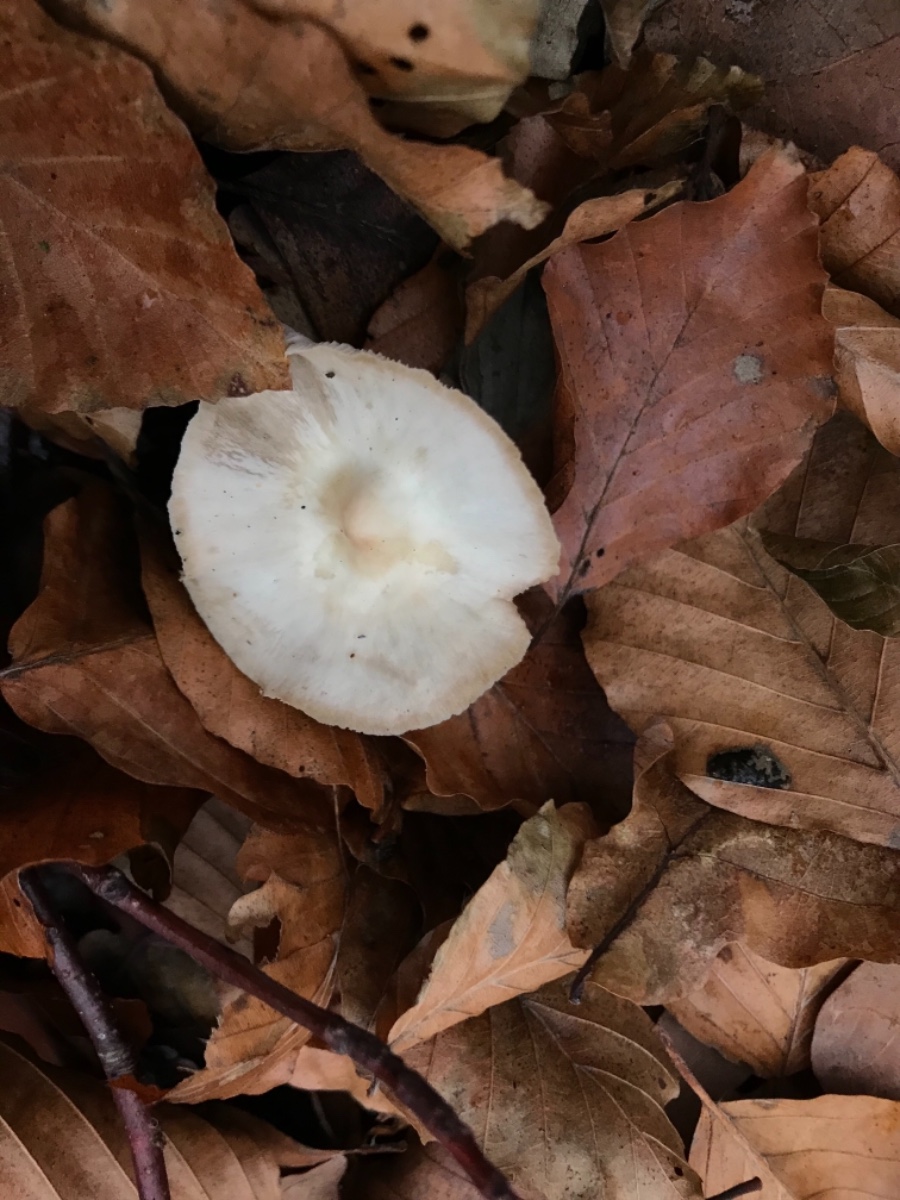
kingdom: Fungi
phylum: Basidiomycota
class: Agaricomycetes
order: Agaricales
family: Omphalotaceae
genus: Rhodocollybia
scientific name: Rhodocollybia asema
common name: horngrå fladhat
